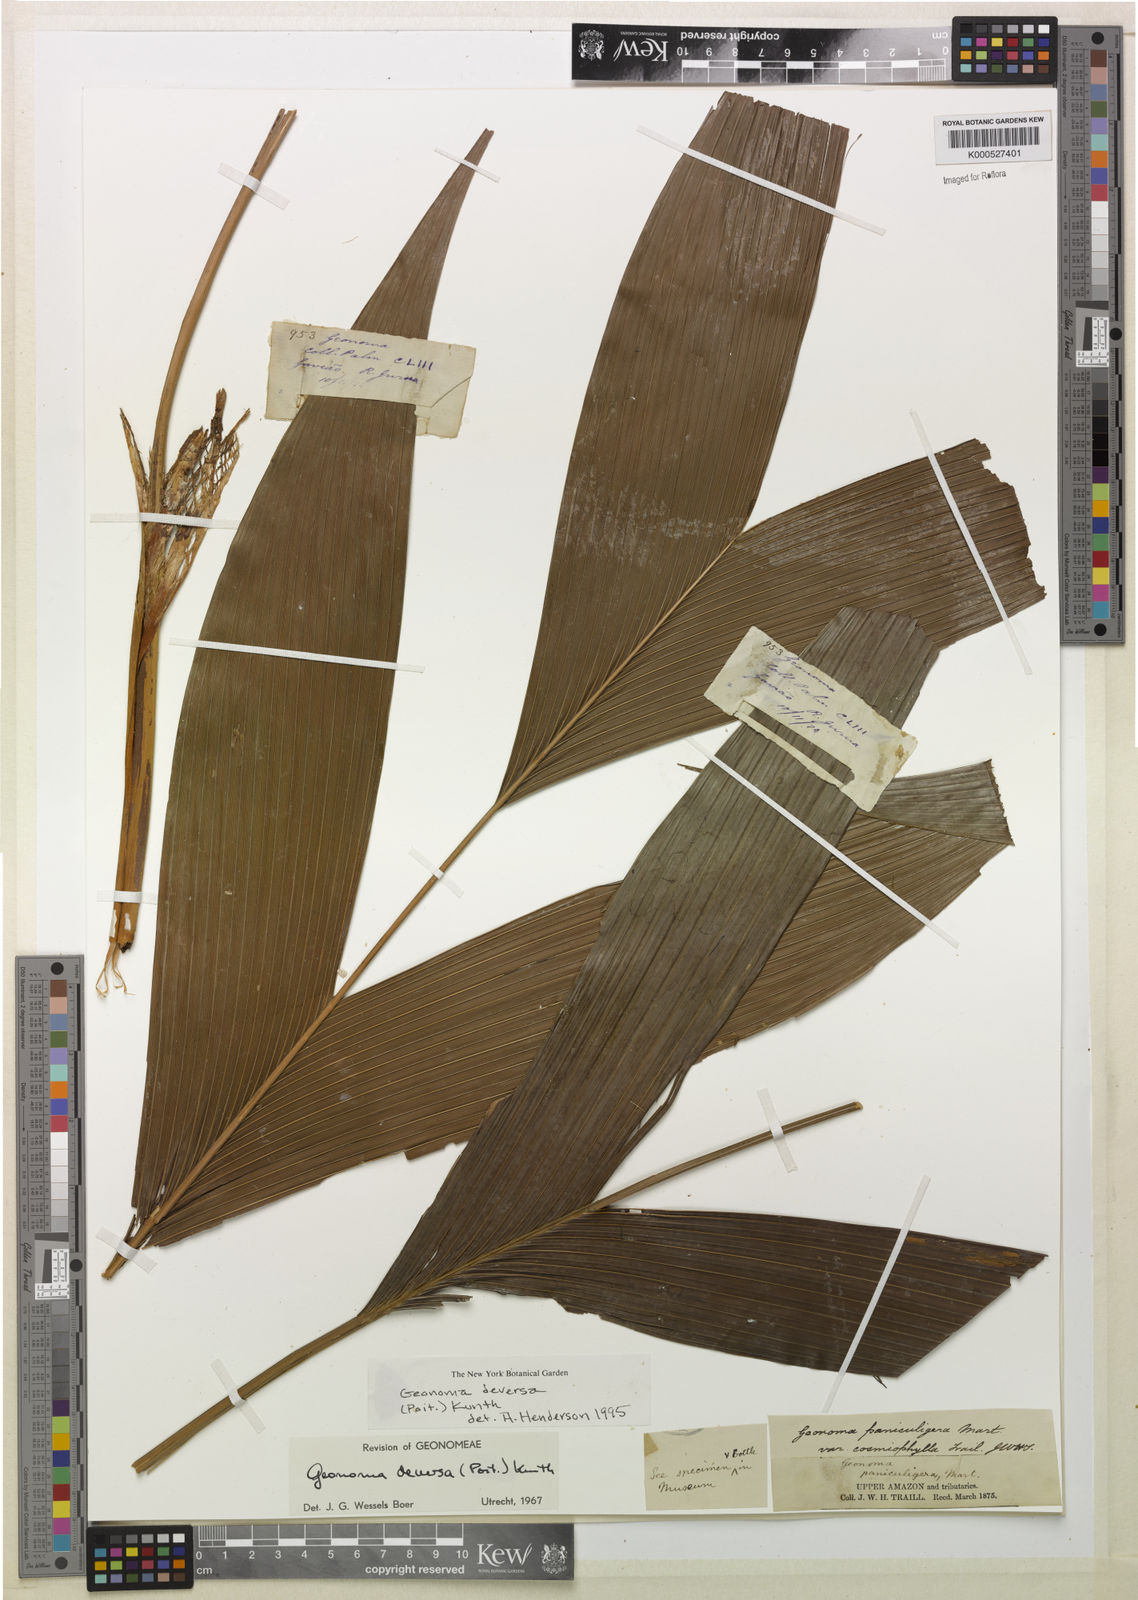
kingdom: Plantae
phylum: Tracheophyta
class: Liliopsida
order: Arecales
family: Arecaceae
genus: Geonoma
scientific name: Geonoma deversa
